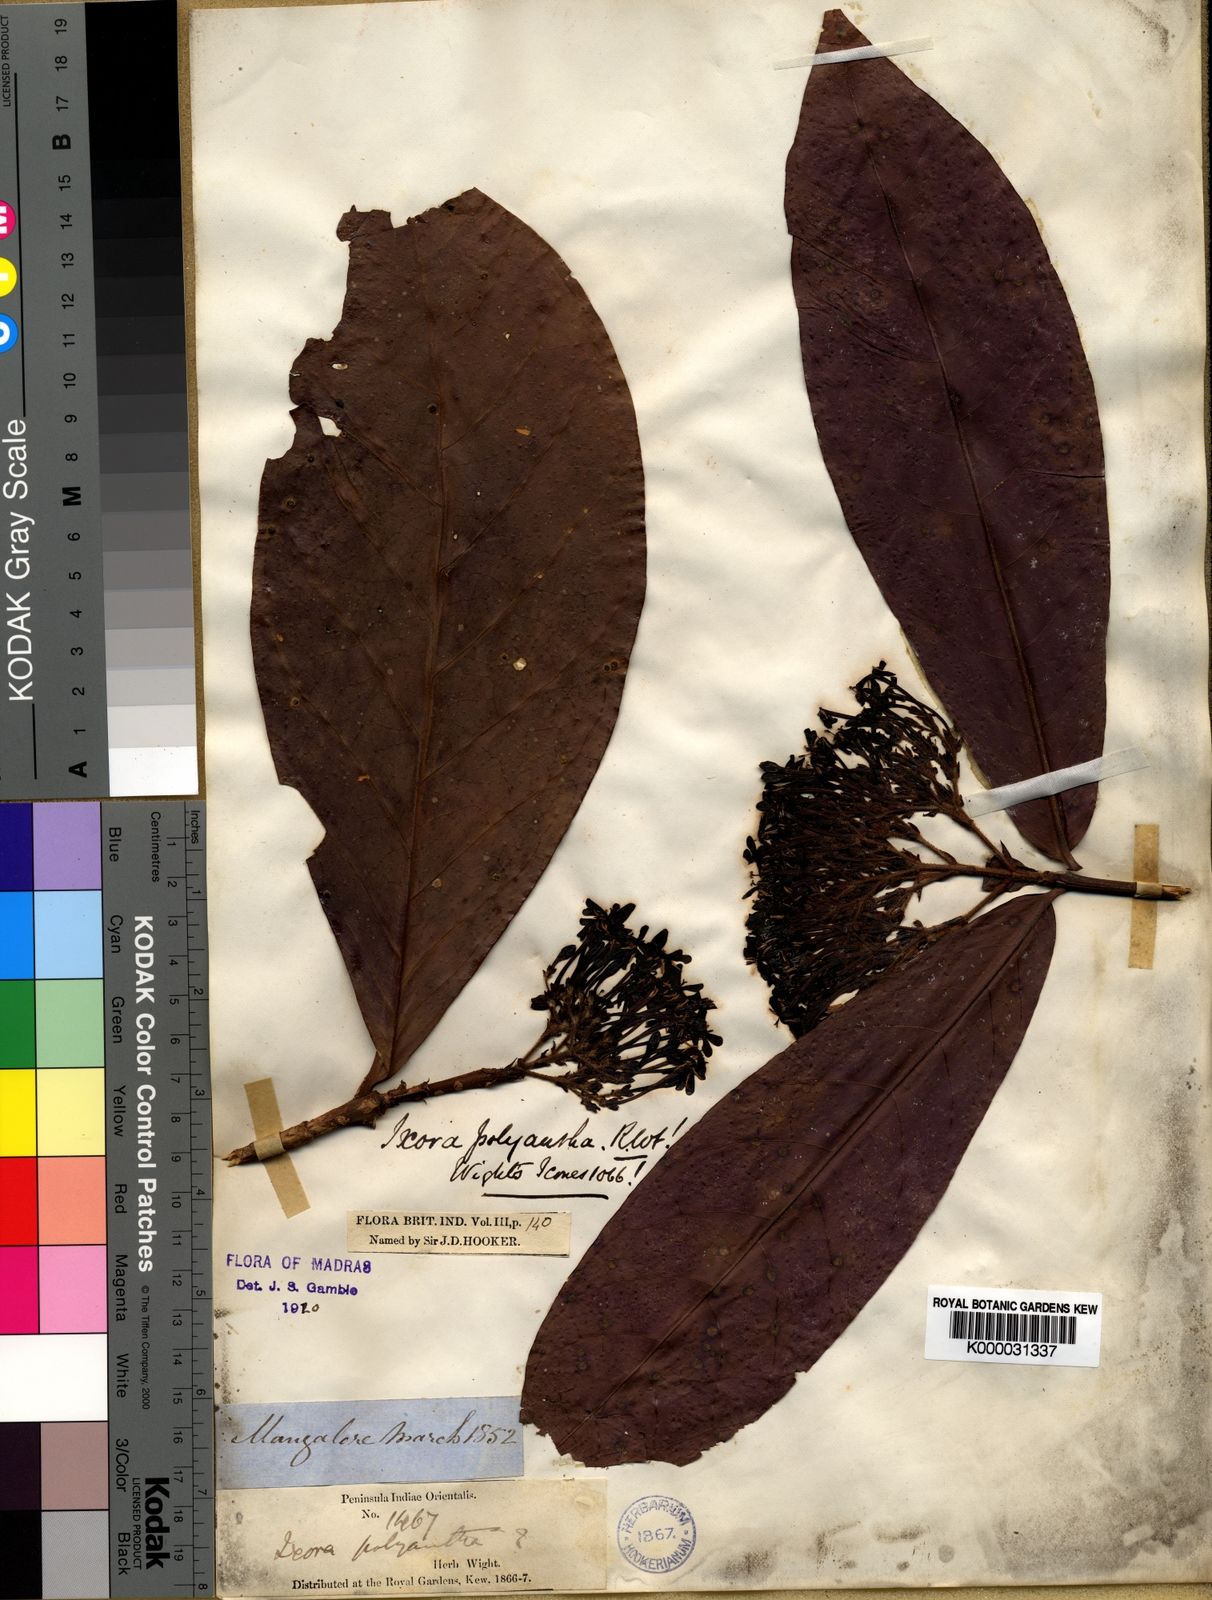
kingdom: Plantae
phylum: Tracheophyta
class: Magnoliopsida
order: Gentianales
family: Rubiaceae
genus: Ixora
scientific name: Ixora polyantha
